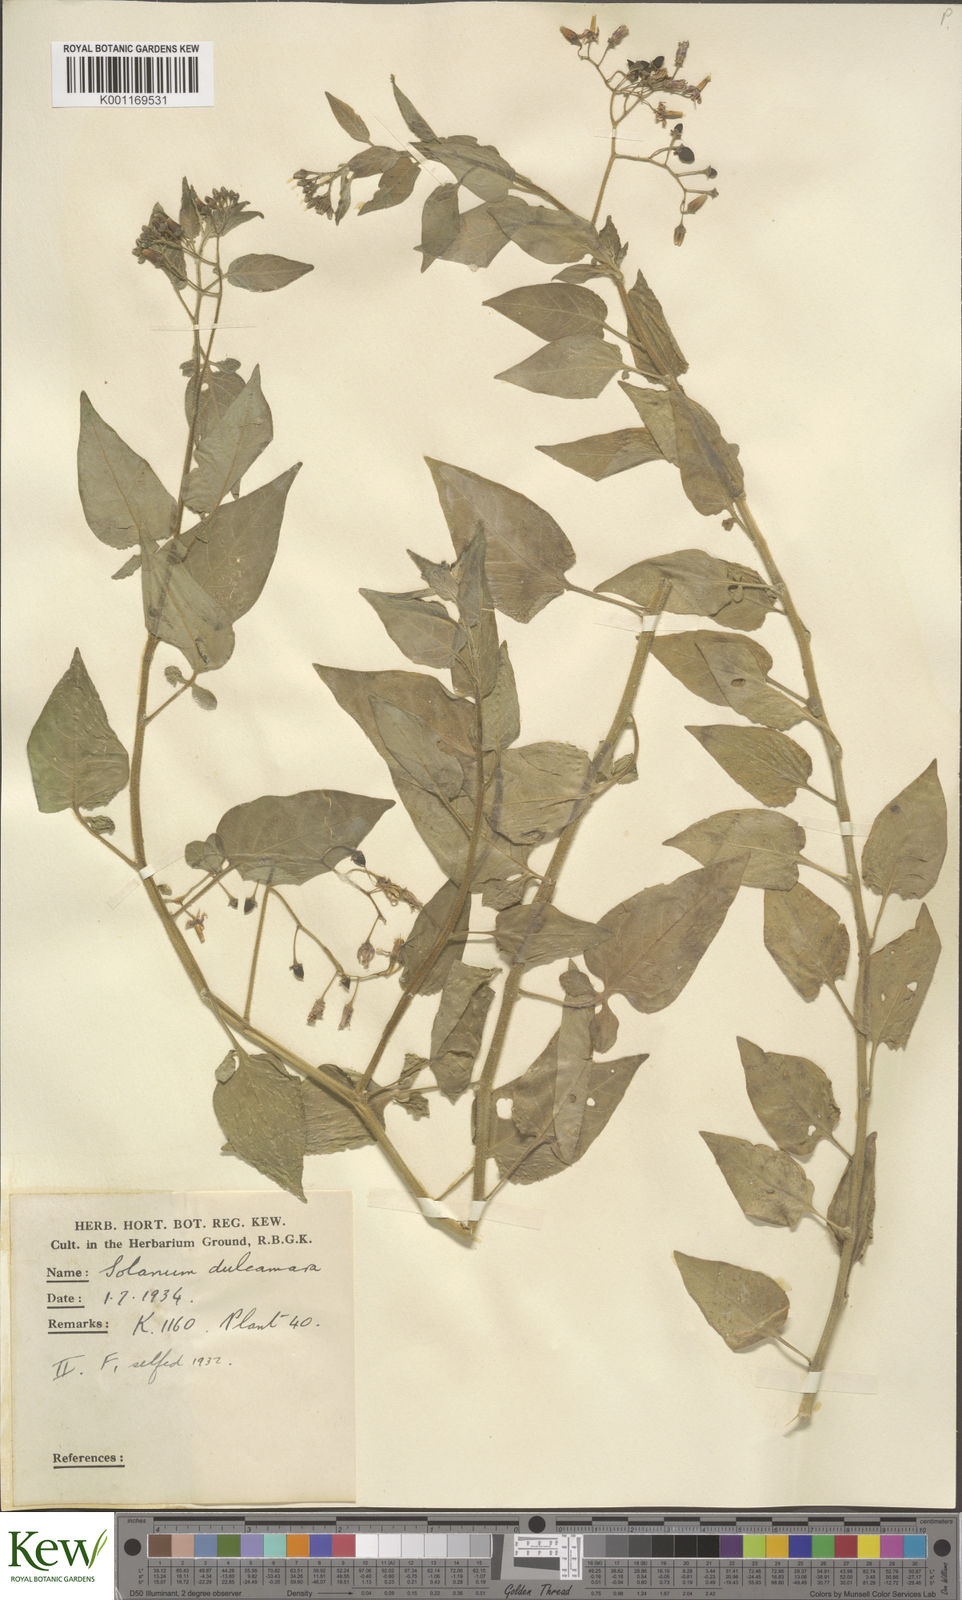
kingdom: Plantae
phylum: Tracheophyta
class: Magnoliopsida
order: Solanales
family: Solanaceae
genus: Solanum
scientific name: Solanum dulcamara
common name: Climbing nightshade
